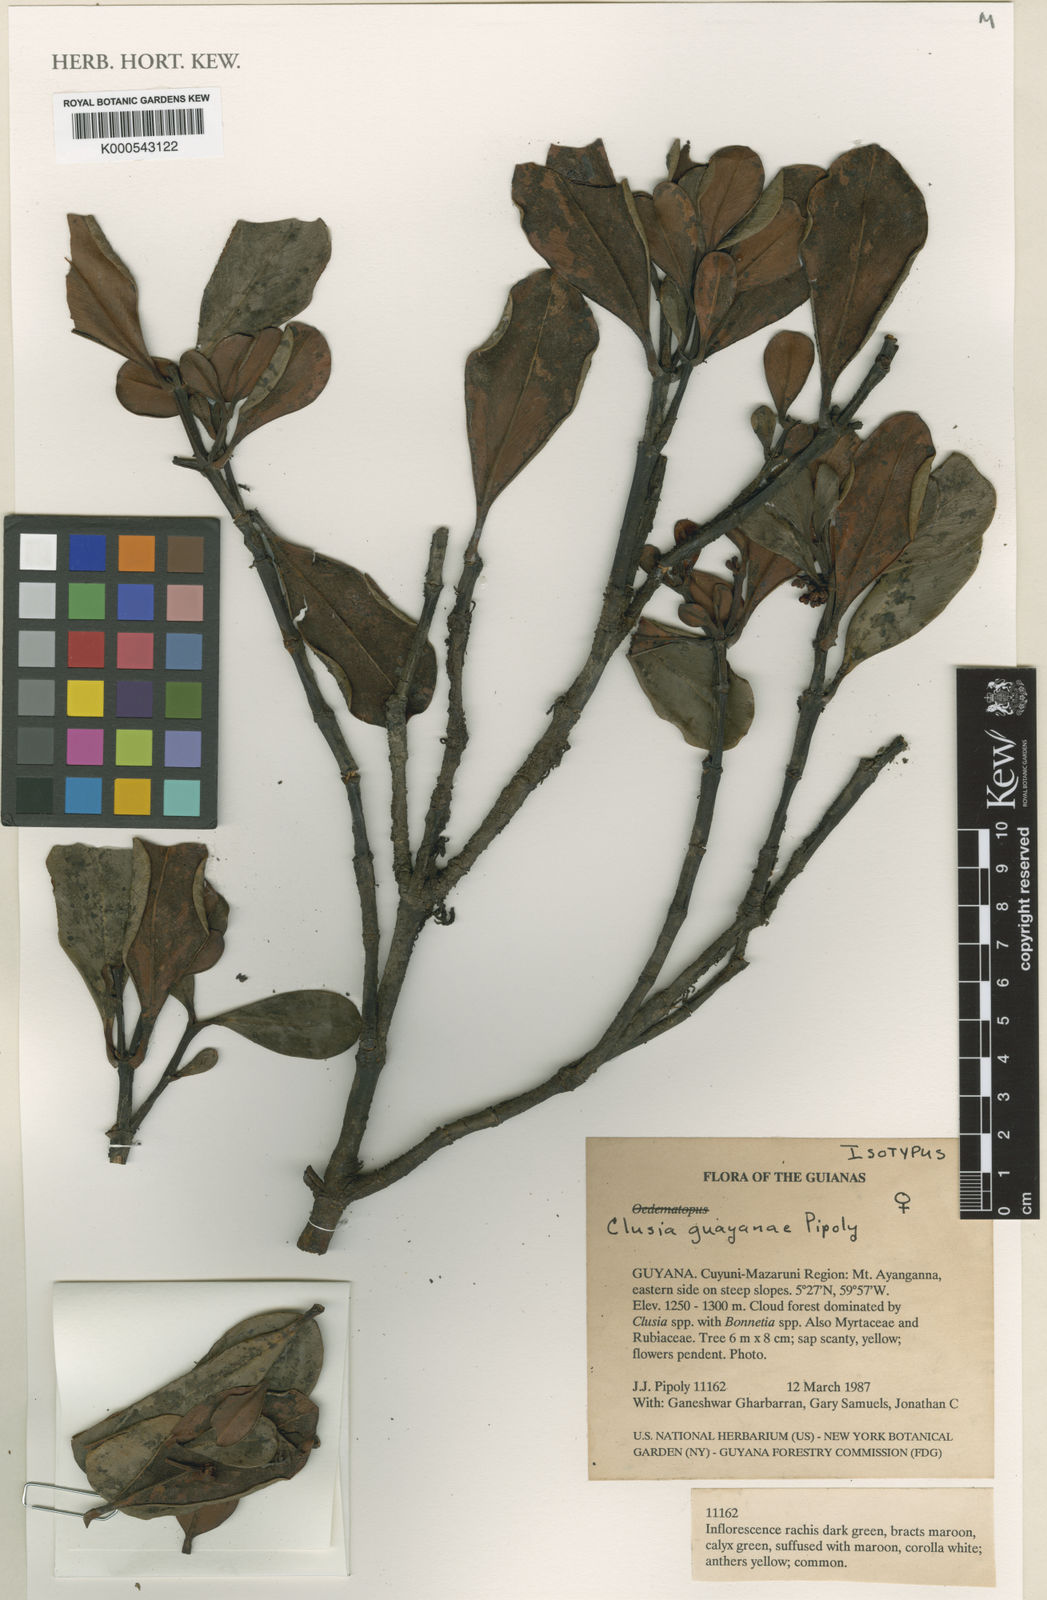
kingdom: Plantae
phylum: Tracheophyta
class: Magnoliopsida
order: Malpighiales
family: Clusiaceae
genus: Clusia
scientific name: Clusia guayanae
